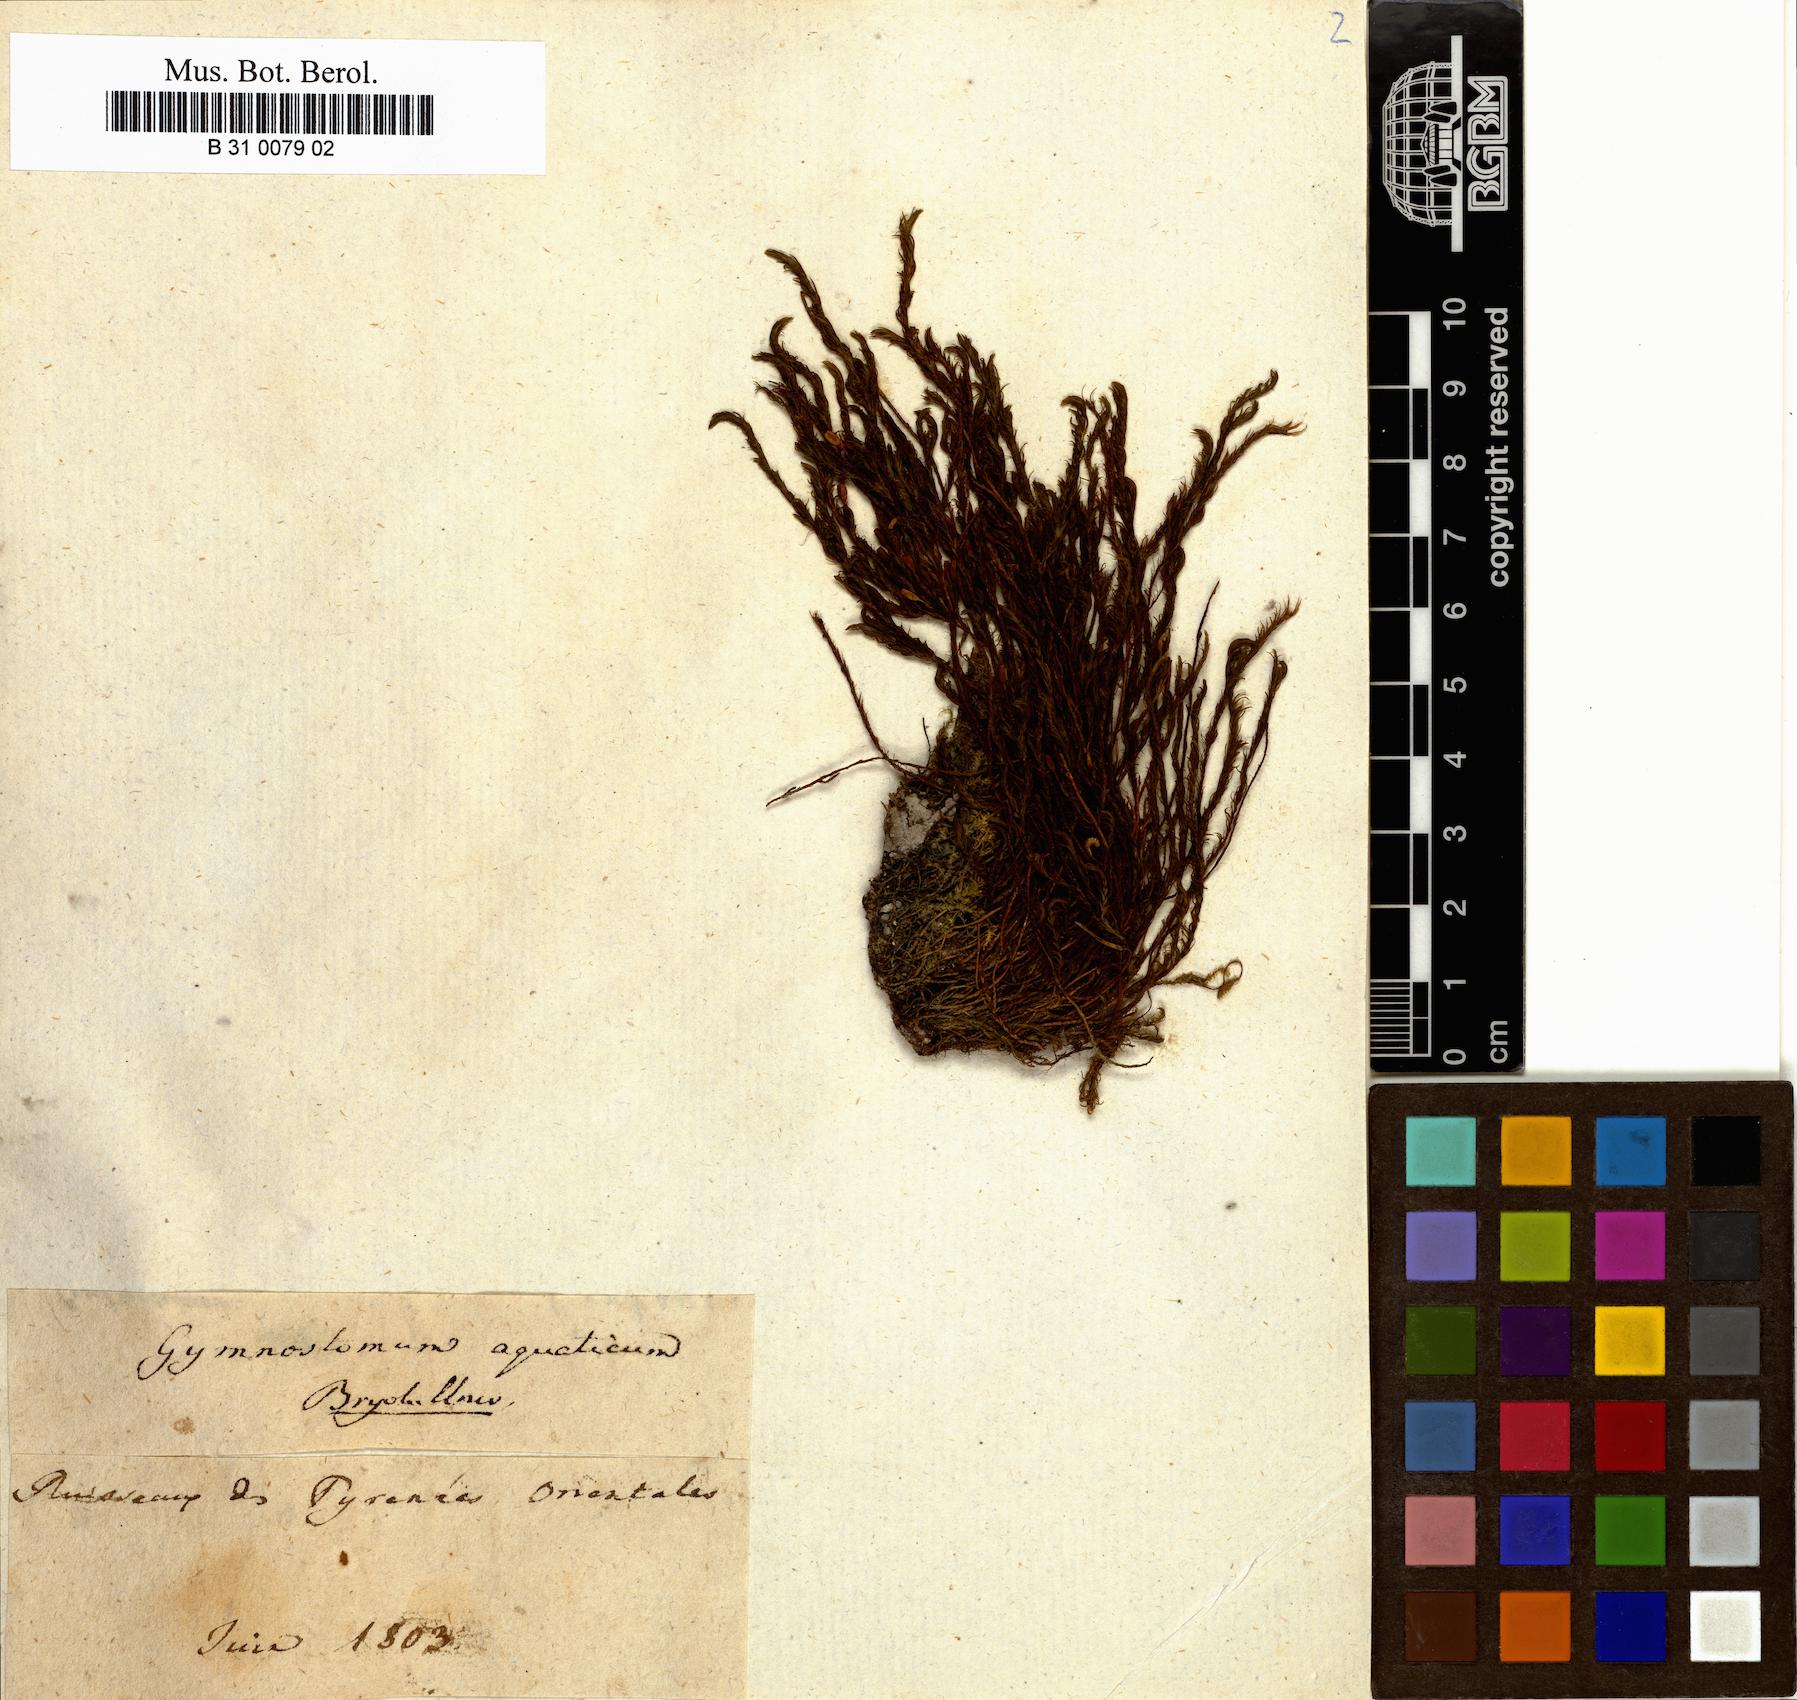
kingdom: Plantae
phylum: Bryophyta
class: Bryopsida
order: Pottiales
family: Pottiaceae
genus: Cinclidotus
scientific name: Cinclidotus aquaticus
